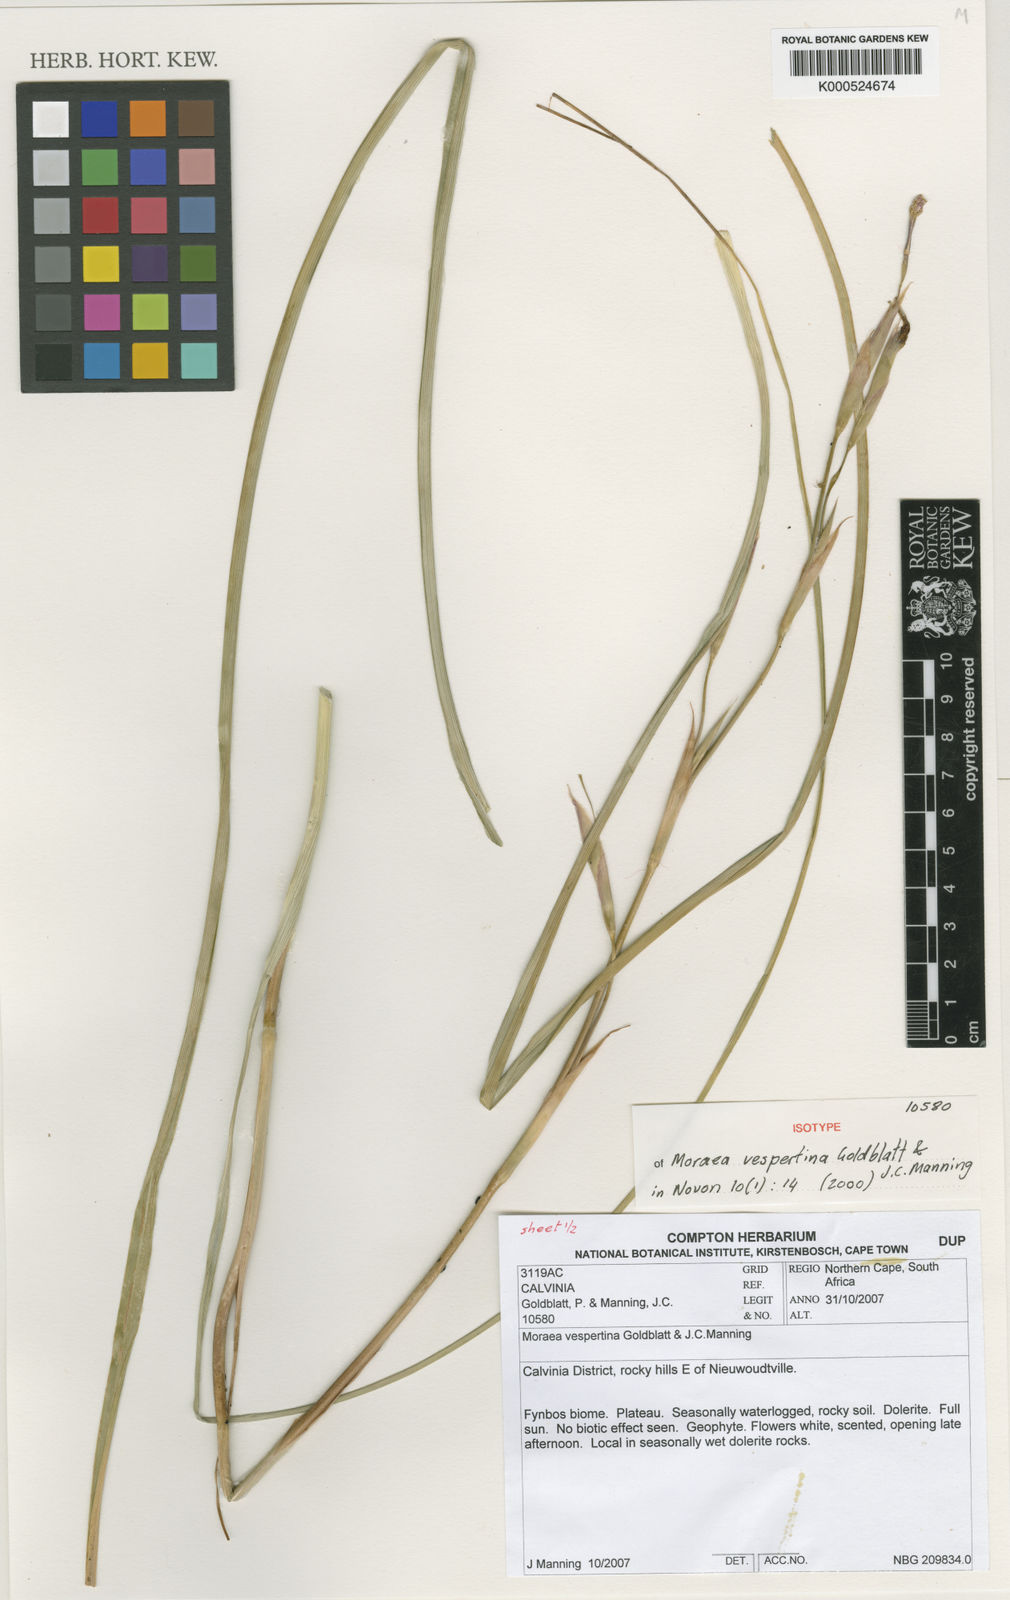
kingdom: Plantae
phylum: Tracheophyta
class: Liliopsida
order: Asparagales
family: Iridaceae
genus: Moraea
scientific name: Moraea vespertina
